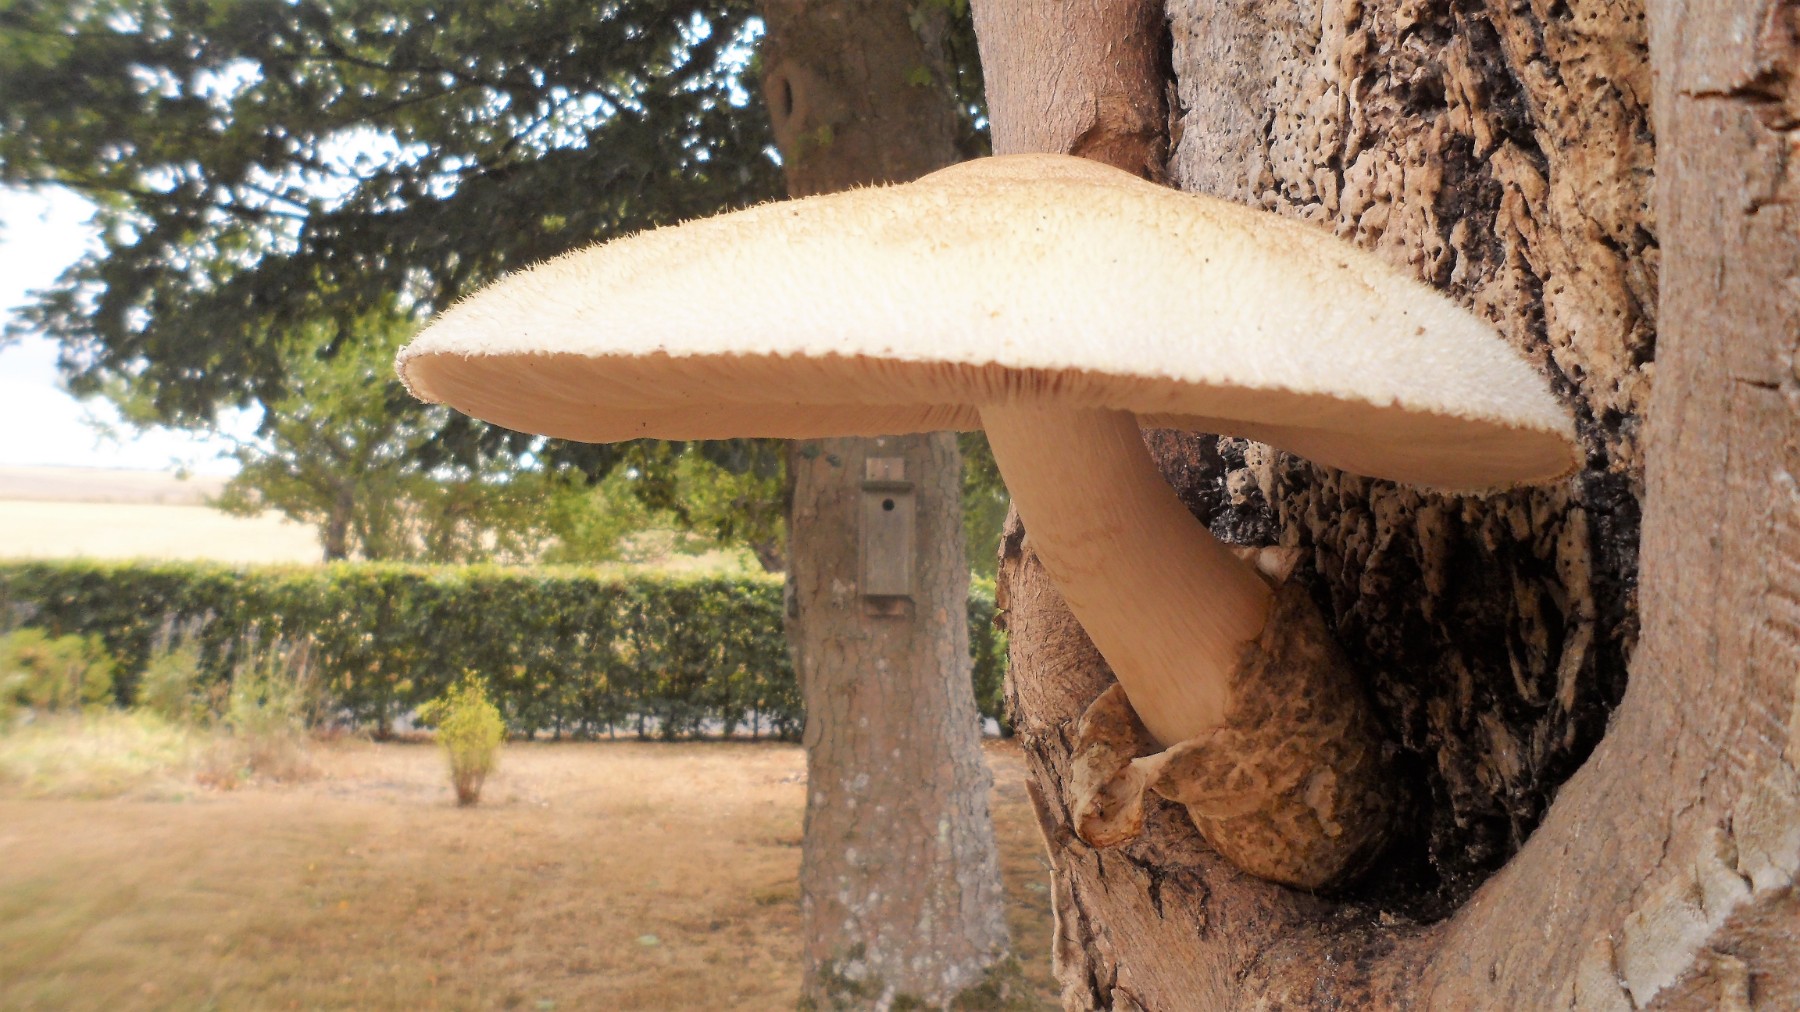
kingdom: Fungi
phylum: Basidiomycota
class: Agaricomycetes
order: Agaricales
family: Pluteaceae
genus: Volvariella
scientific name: Volvariella bombycina
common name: silkehåret posesvamp
